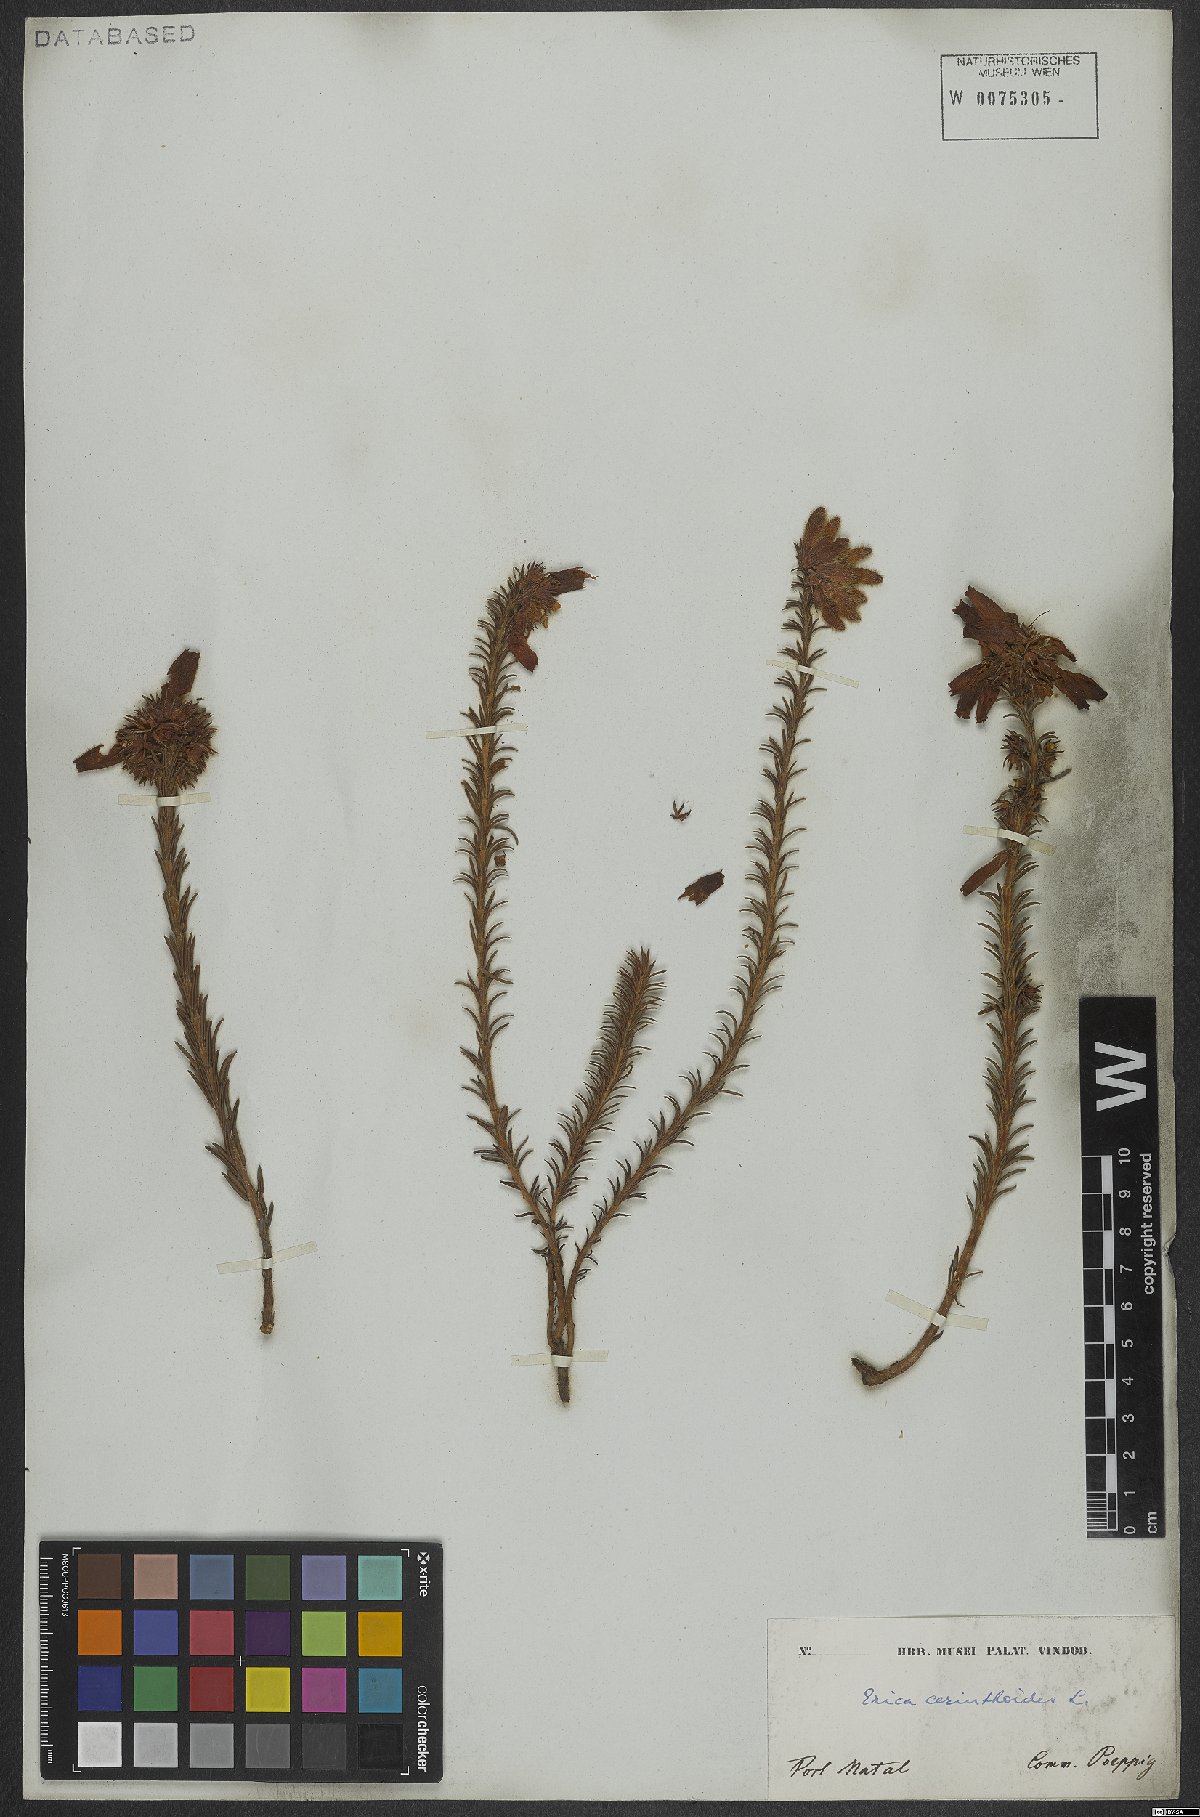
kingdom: Plantae
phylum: Tracheophyta
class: Magnoliopsida
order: Ericales
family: Ericaceae
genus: Erica
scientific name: Erica cerinthoides
